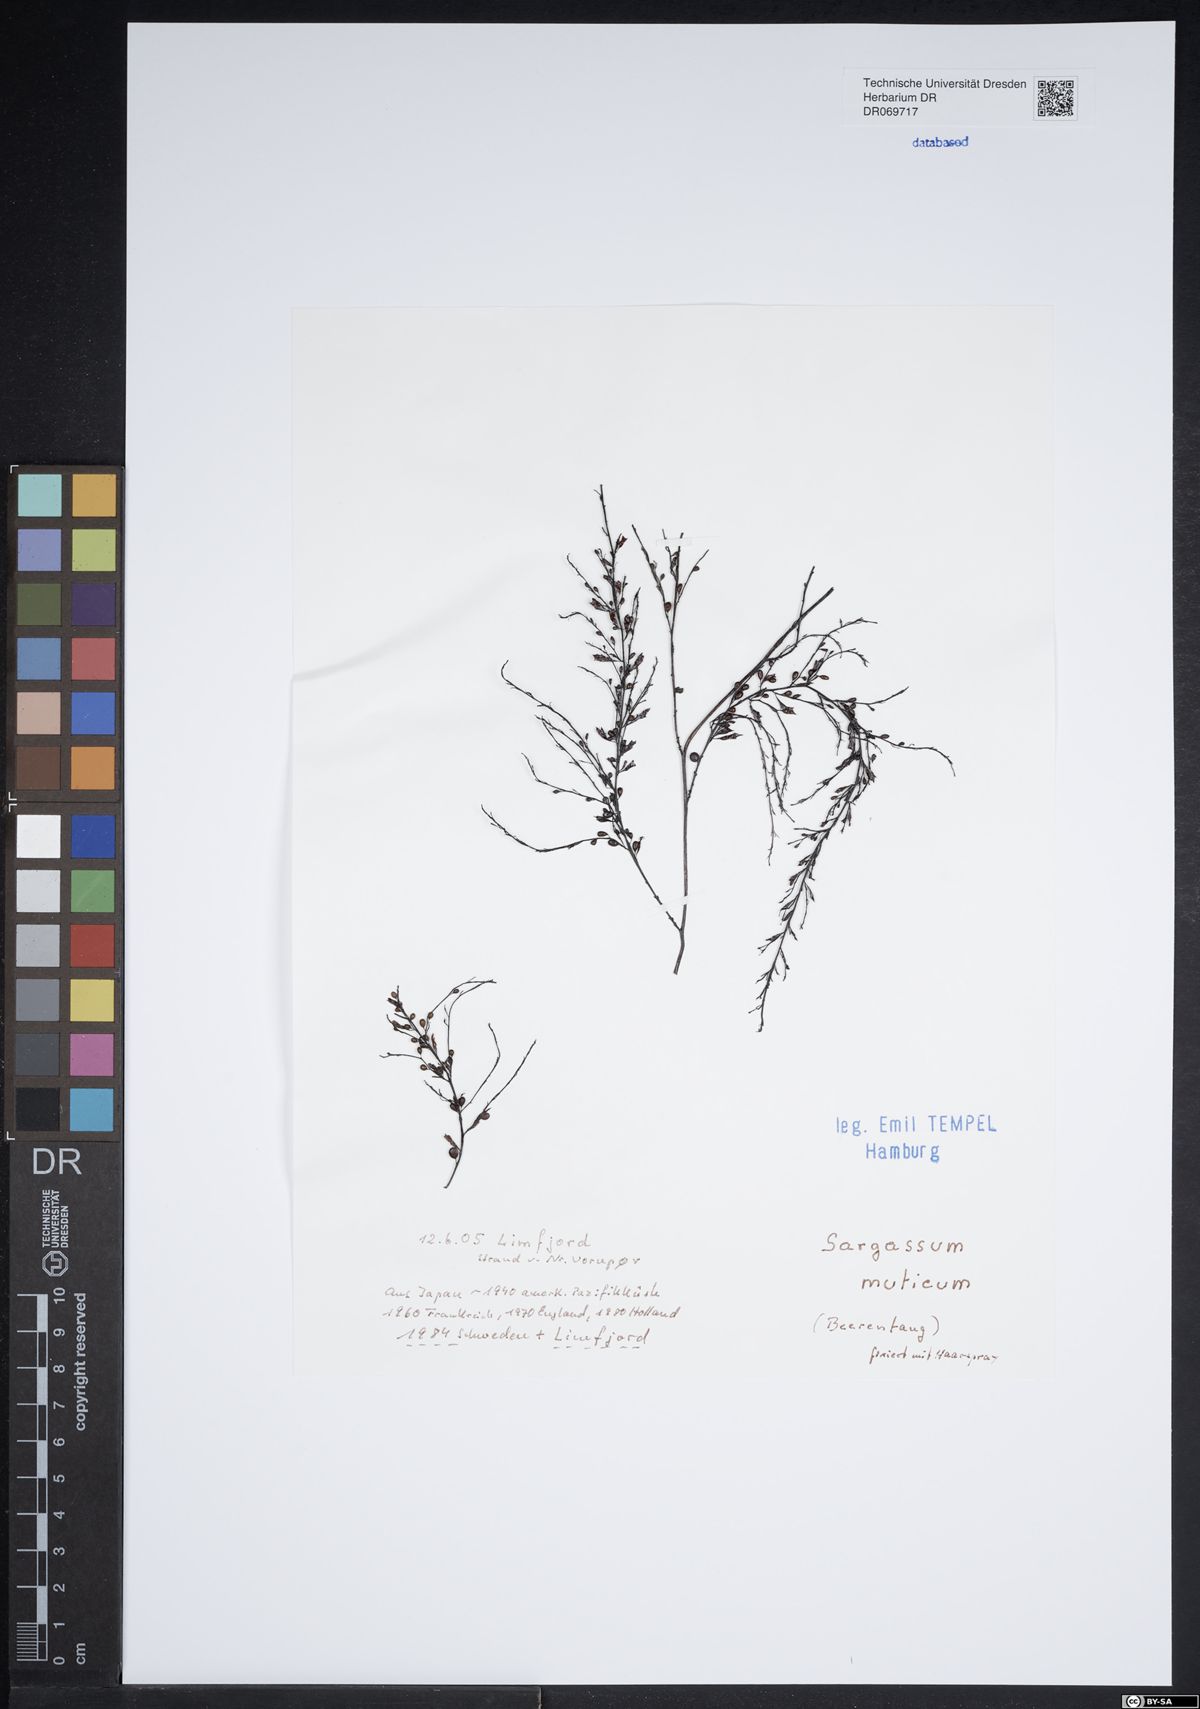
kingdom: Chromista
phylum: Ochrophyta
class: Phaeophyceae
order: Fucales
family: Sargassaceae
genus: Sargassum
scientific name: Sargassum muticum
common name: Japweed
